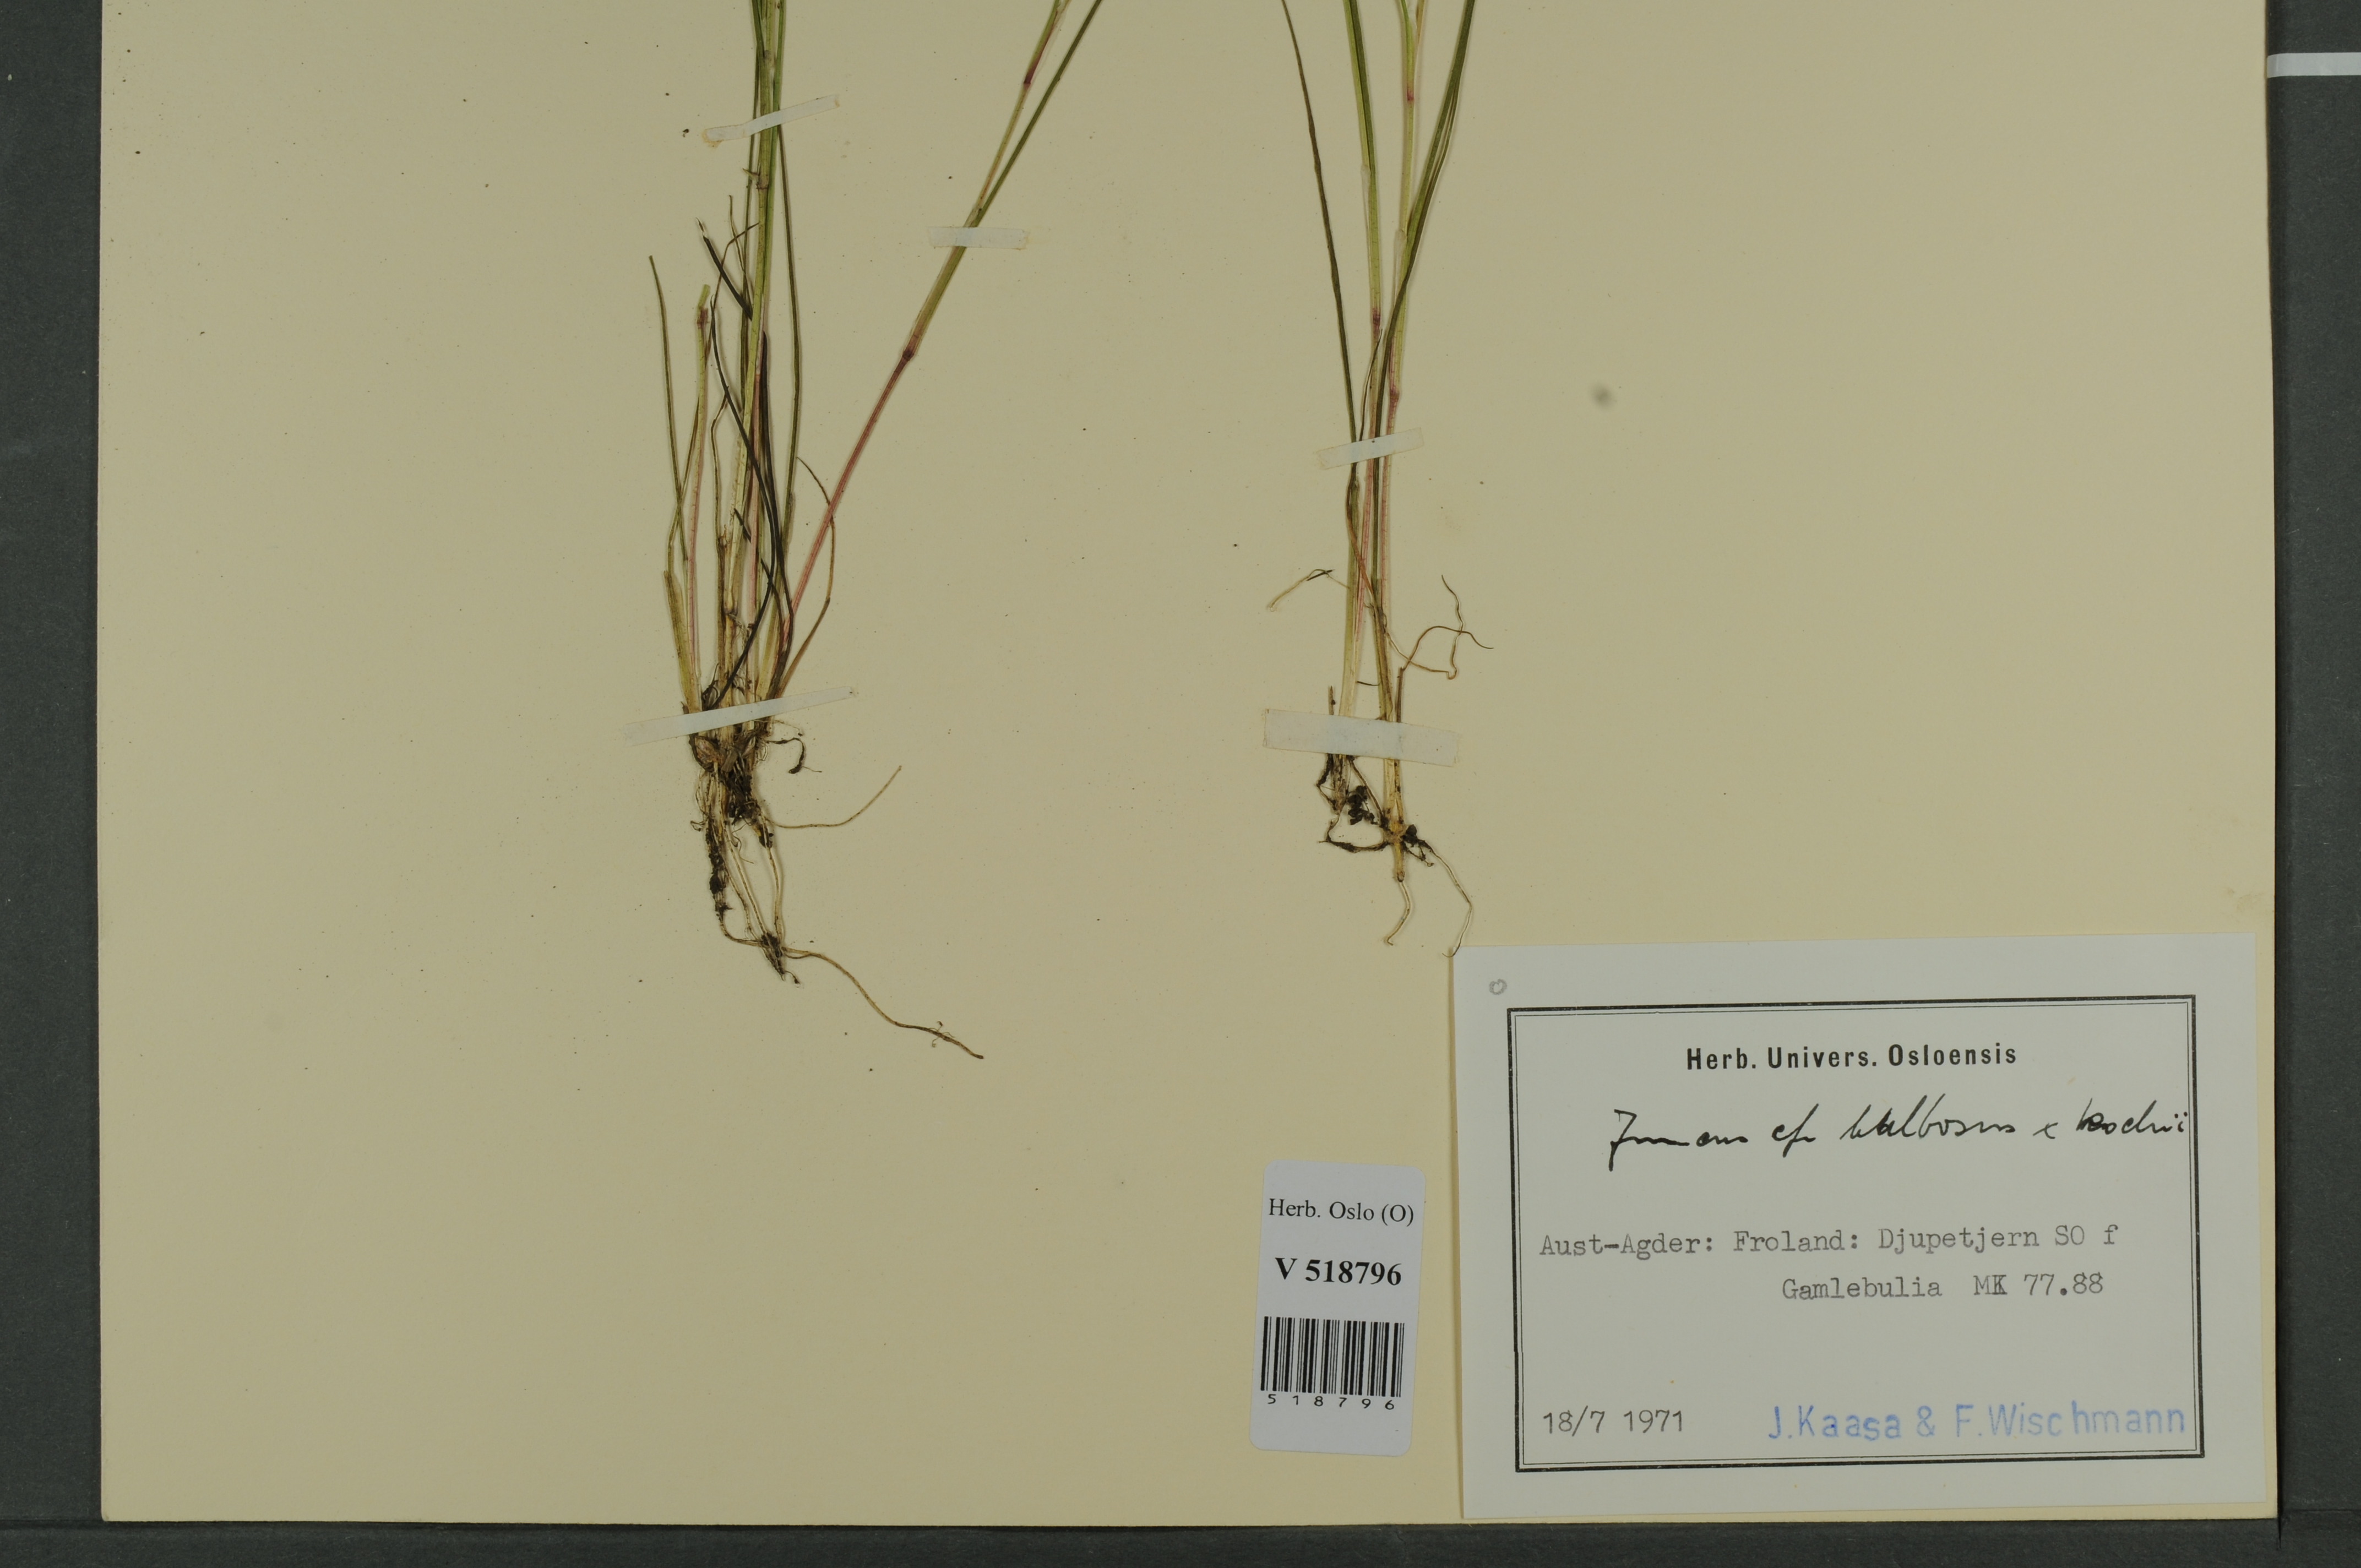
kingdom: Plantae
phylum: Tracheophyta
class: Liliopsida
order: Poales
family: Juncaceae
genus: Juncus
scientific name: Juncus
